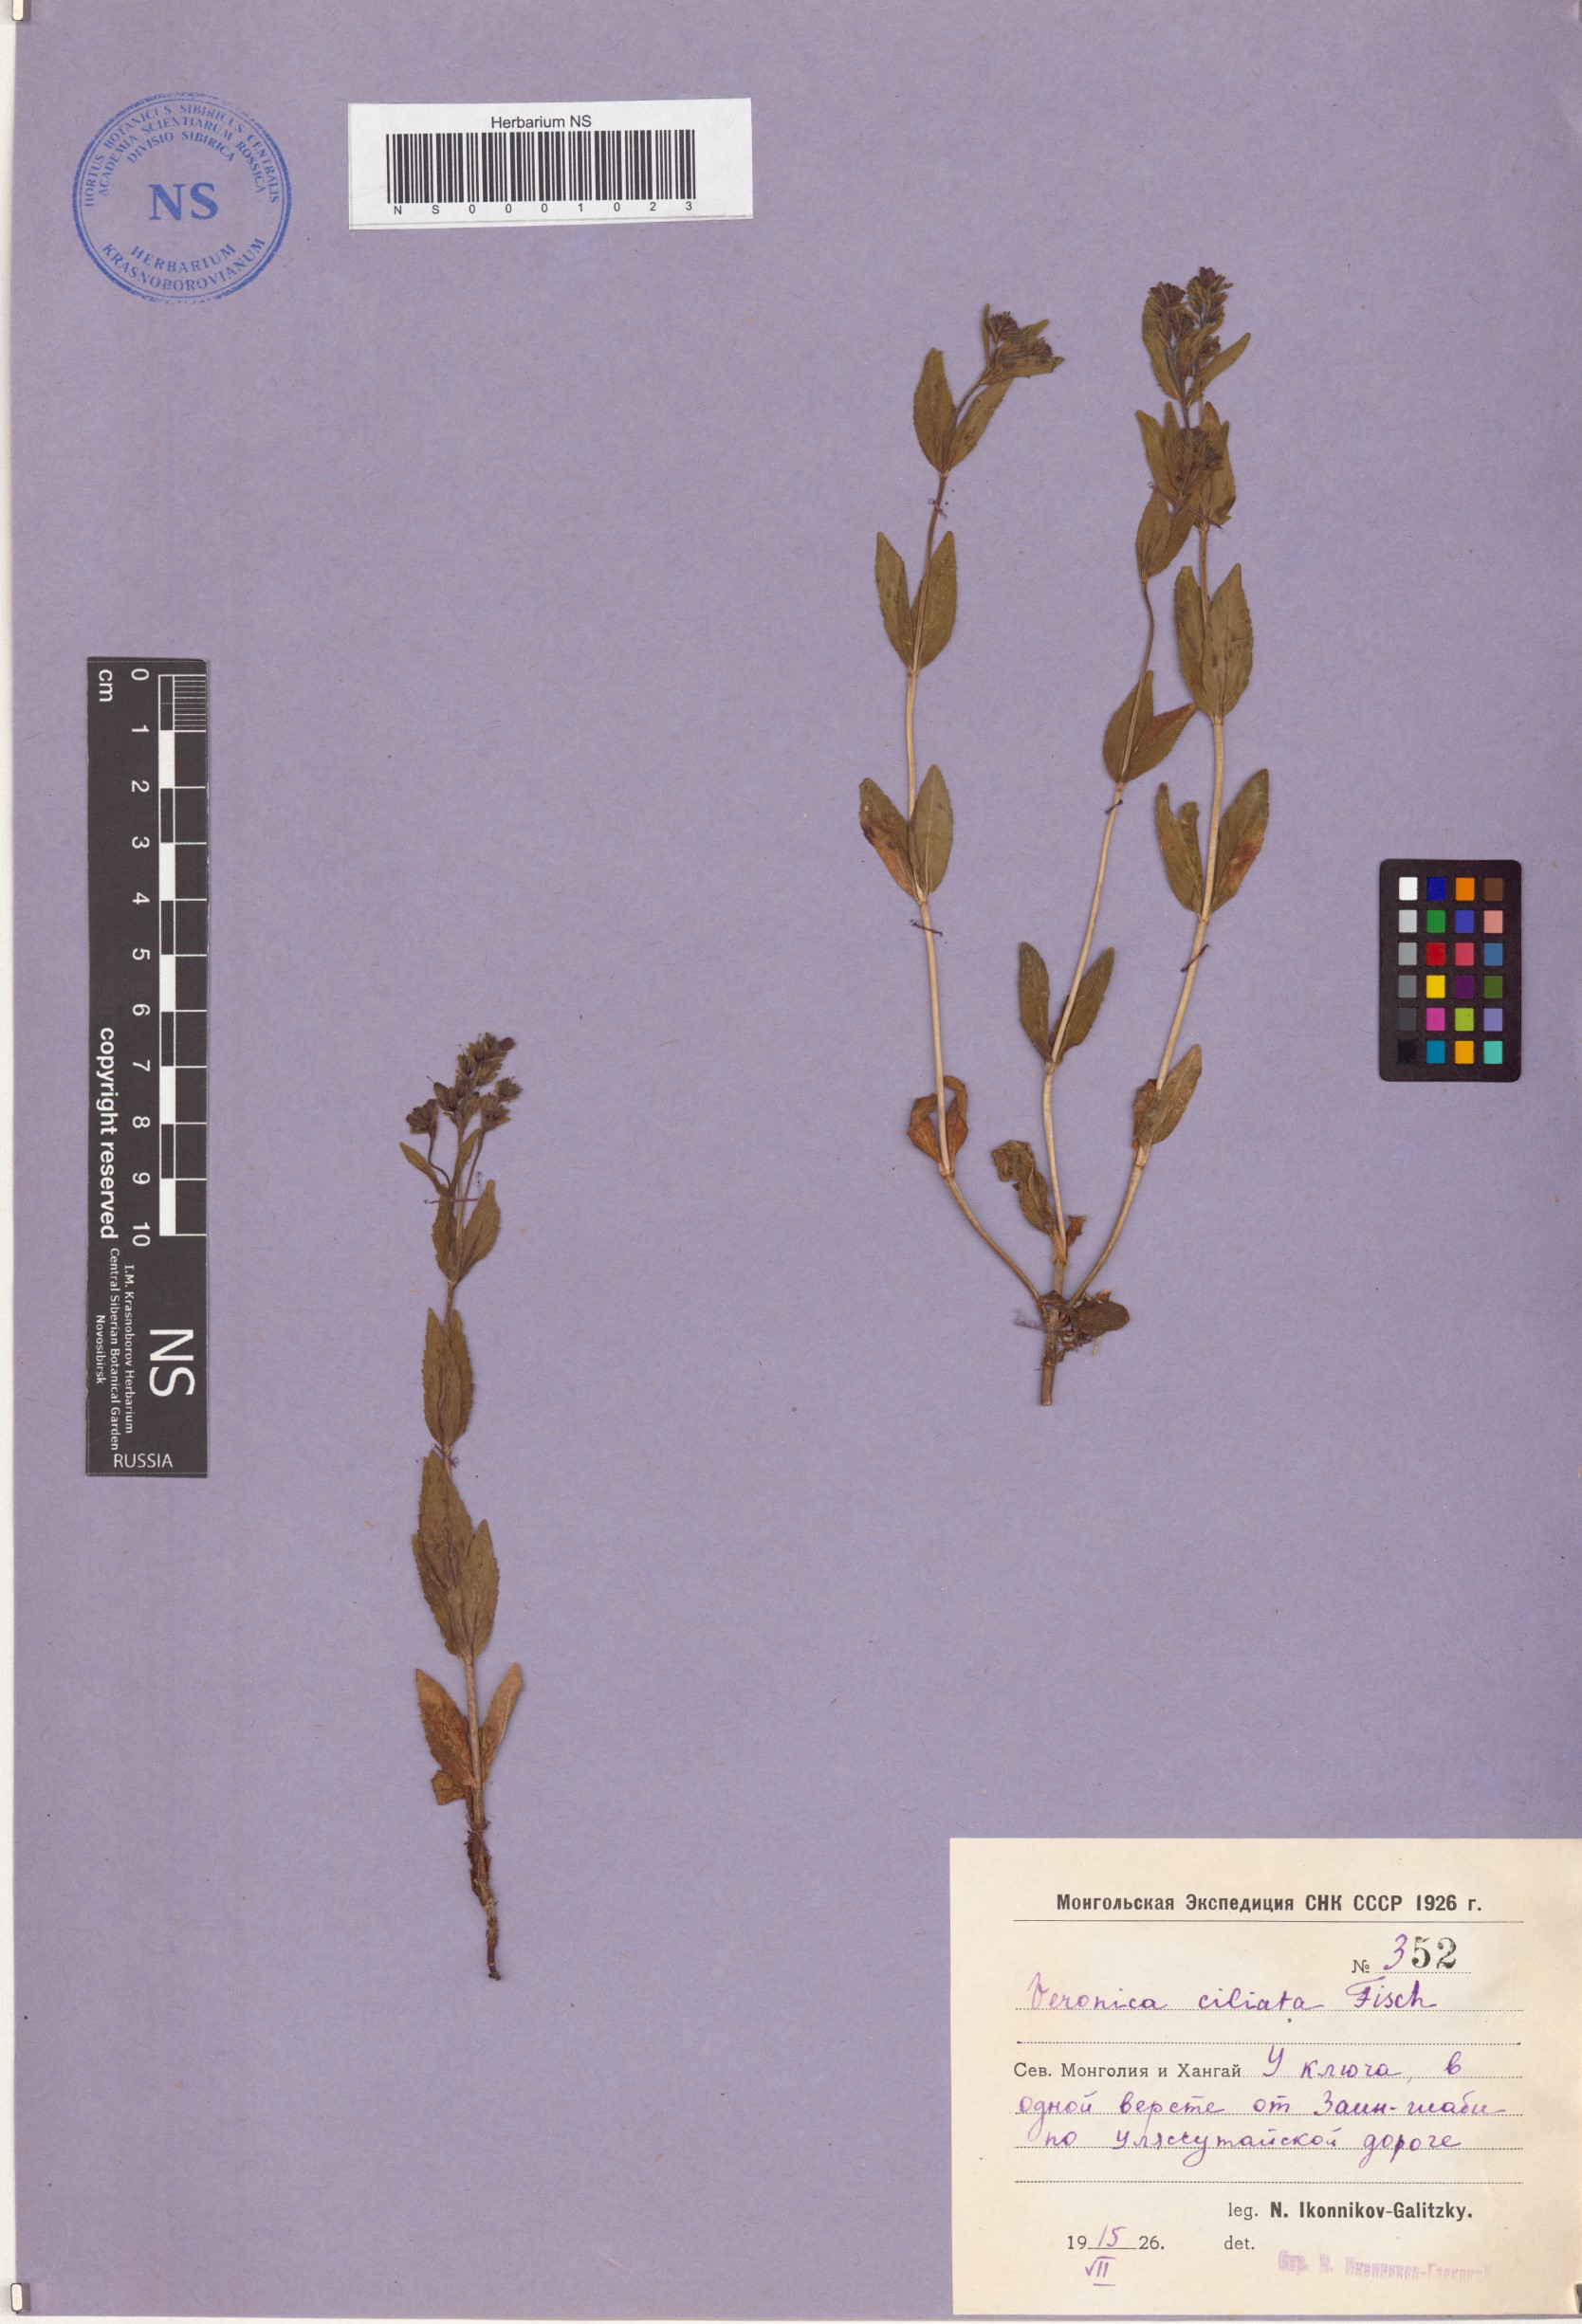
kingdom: Plantae
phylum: Tracheophyta
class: Magnoliopsida
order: Lamiales
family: Plantaginaceae
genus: Veronica
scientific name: Veronica ciliata
